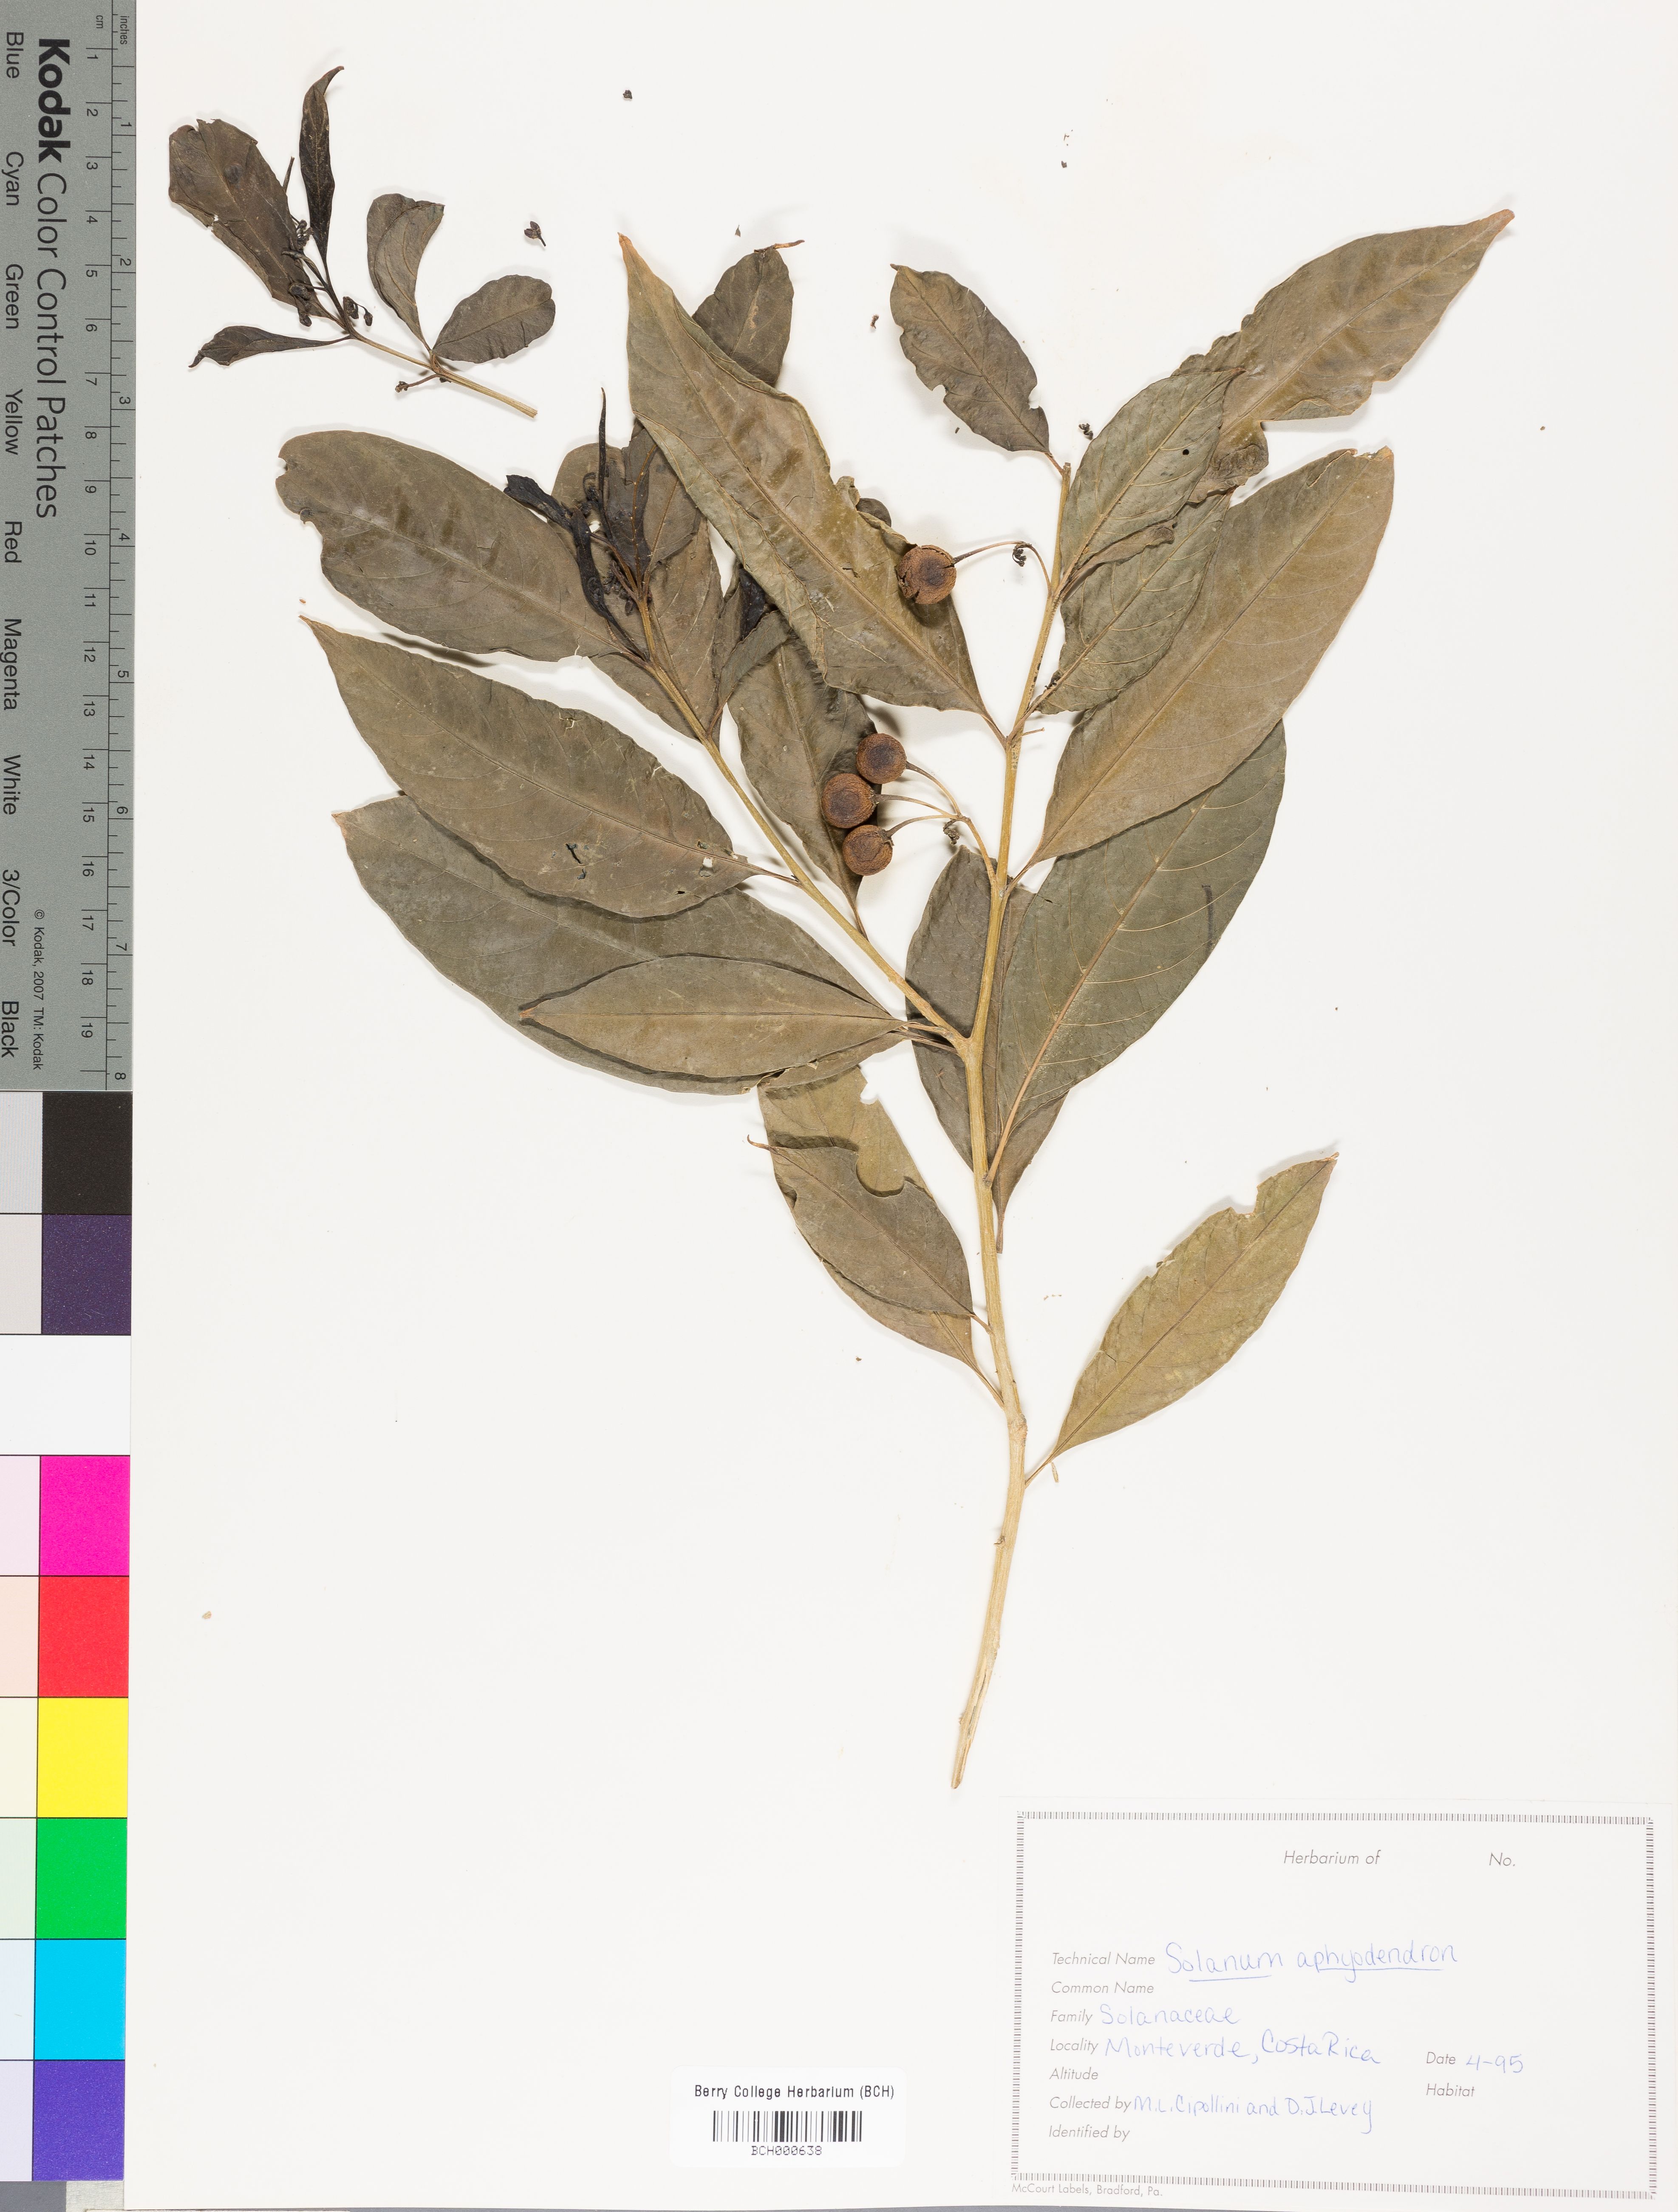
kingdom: Plantae
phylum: Tracheophyta
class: Magnoliopsida
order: Solanales
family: Solanaceae
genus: Solanum
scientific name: Solanum aphyodendron
